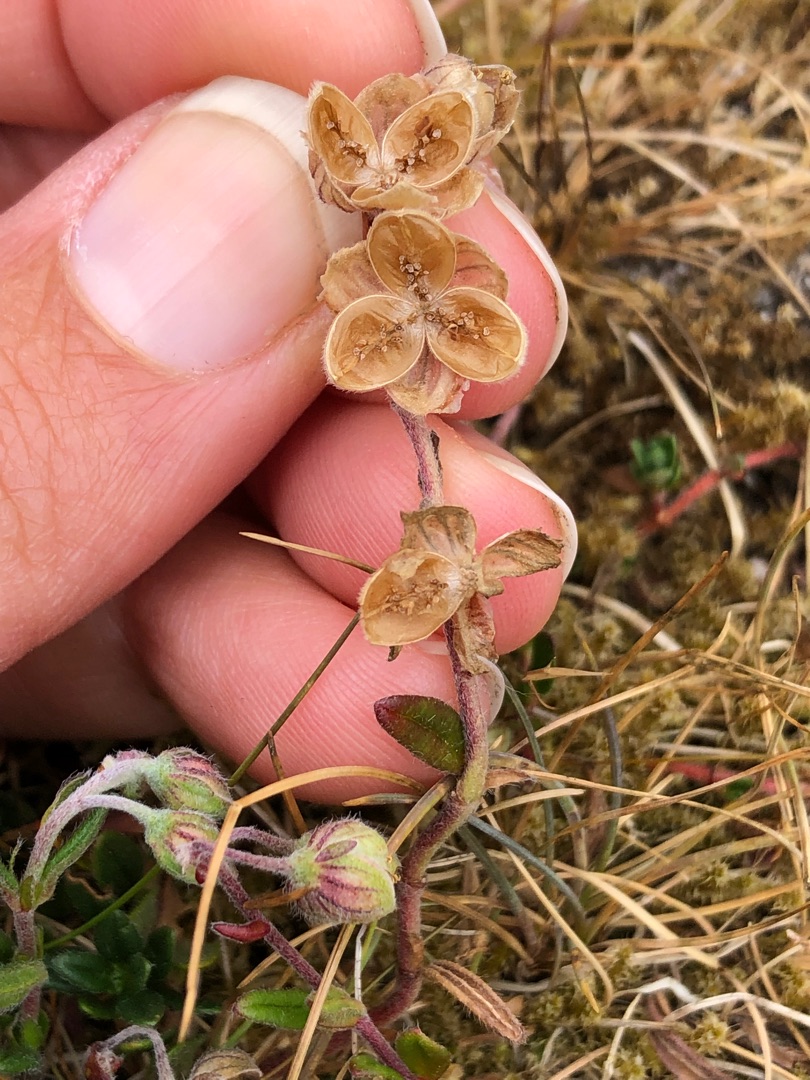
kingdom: Plantae
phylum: Tracheophyta
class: Magnoliopsida
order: Malvales
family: Cistaceae
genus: Helianthemum
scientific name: Helianthemum nummularium
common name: Soløje
